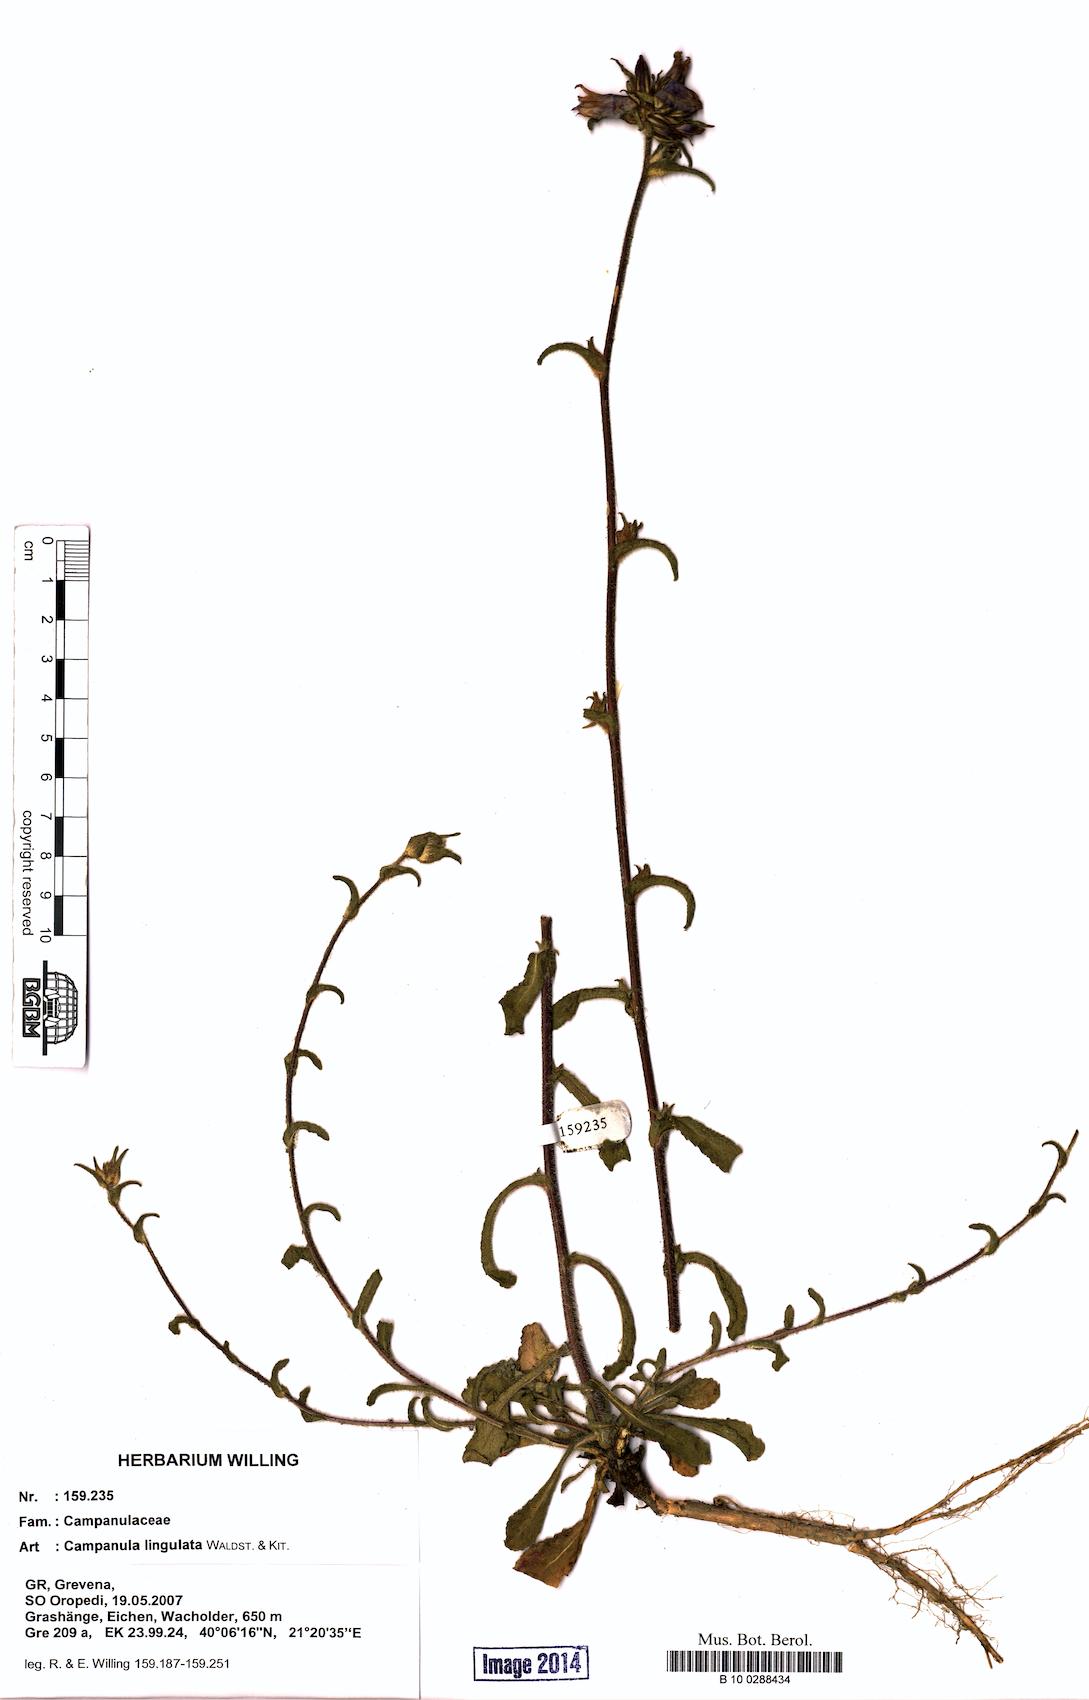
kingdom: Plantae
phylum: Tracheophyta
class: Magnoliopsida
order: Asterales
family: Campanulaceae
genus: Campanula
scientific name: Campanula lingulata
